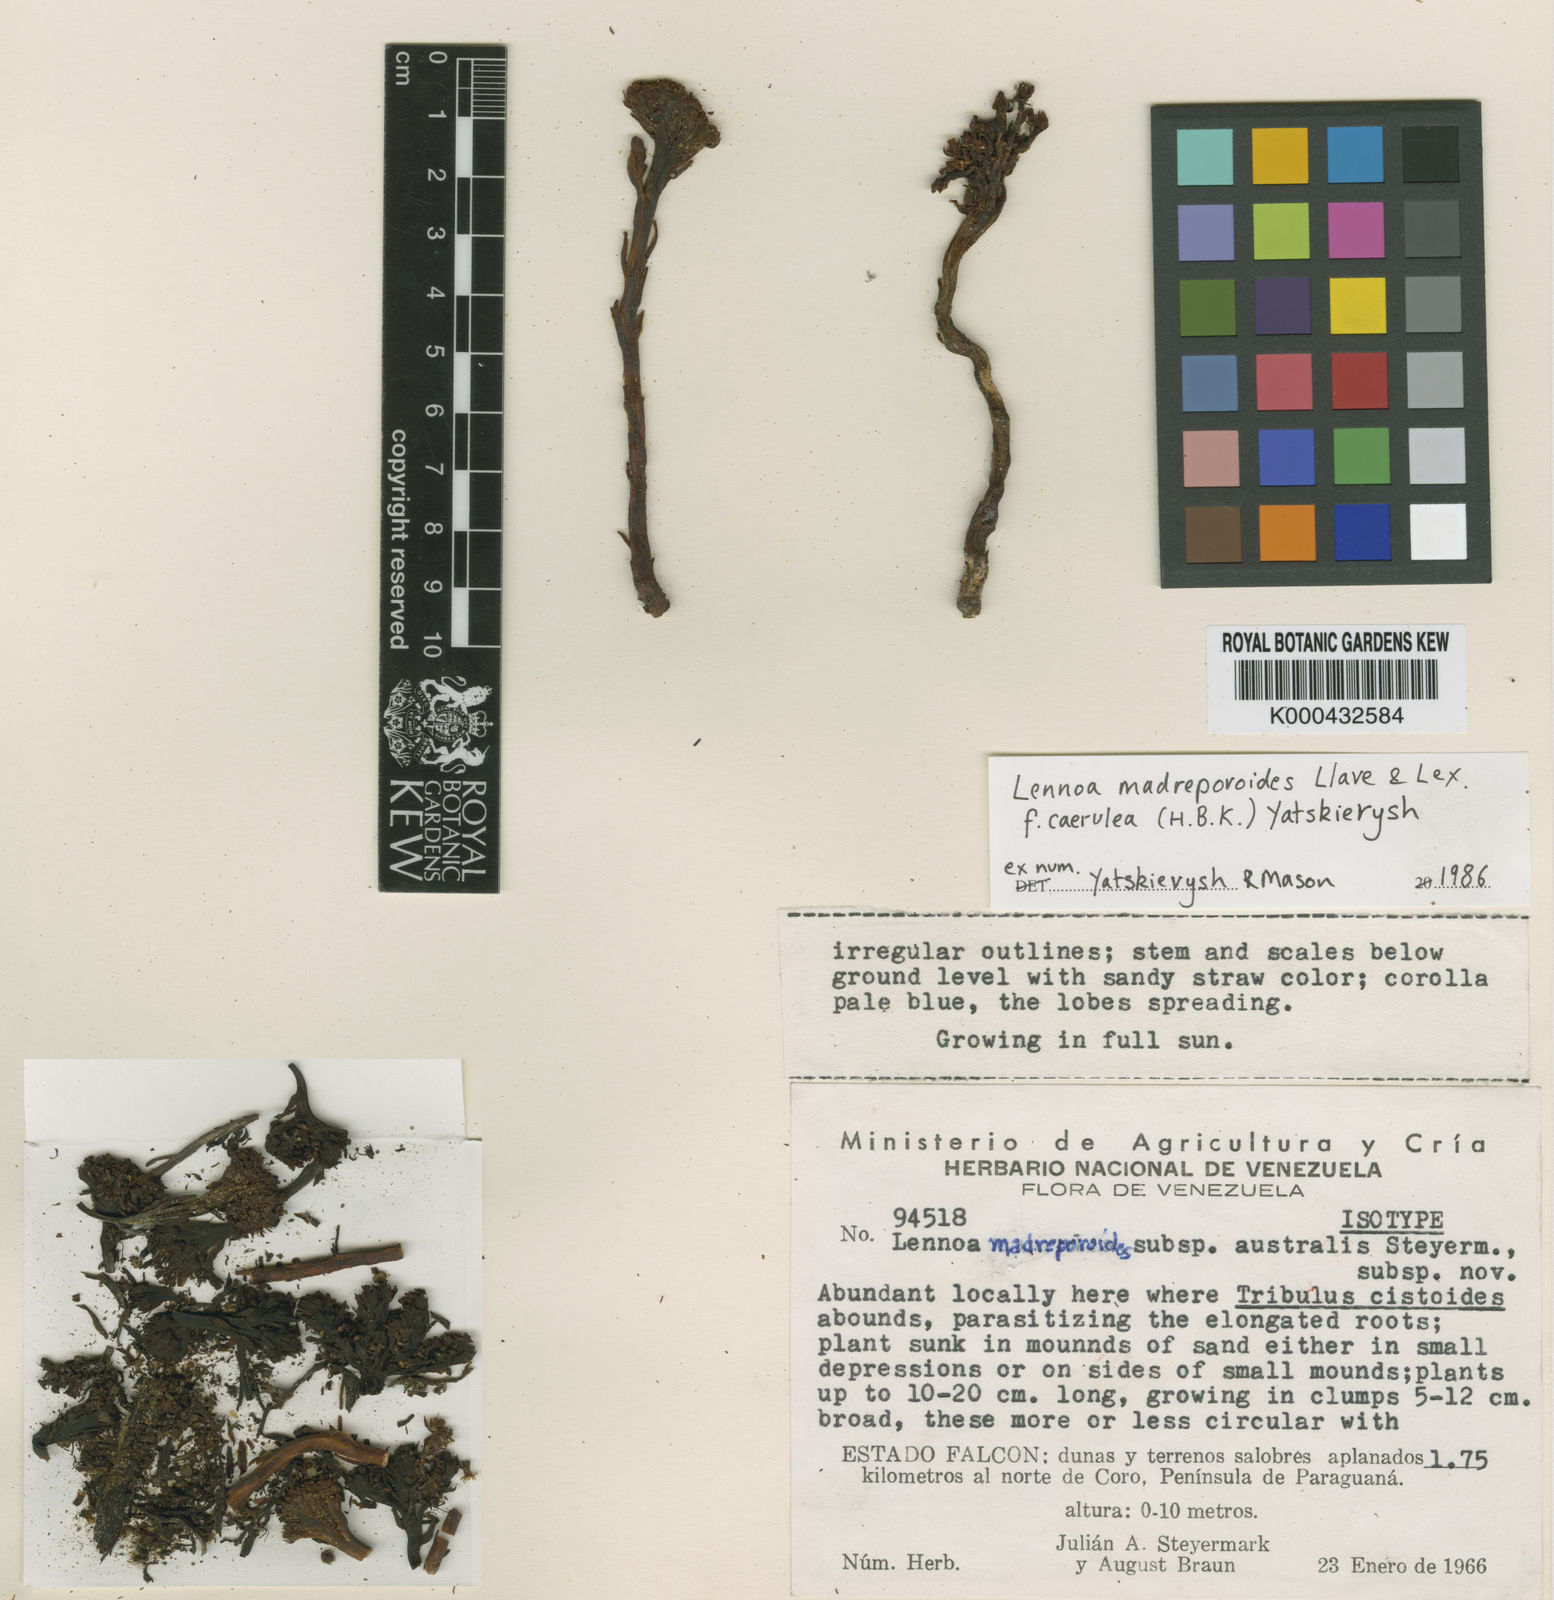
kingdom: Plantae
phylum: Tracheophyta
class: Magnoliopsida
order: Boraginales
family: Lennoaceae
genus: Lennoa
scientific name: Lennoa madreporoides
